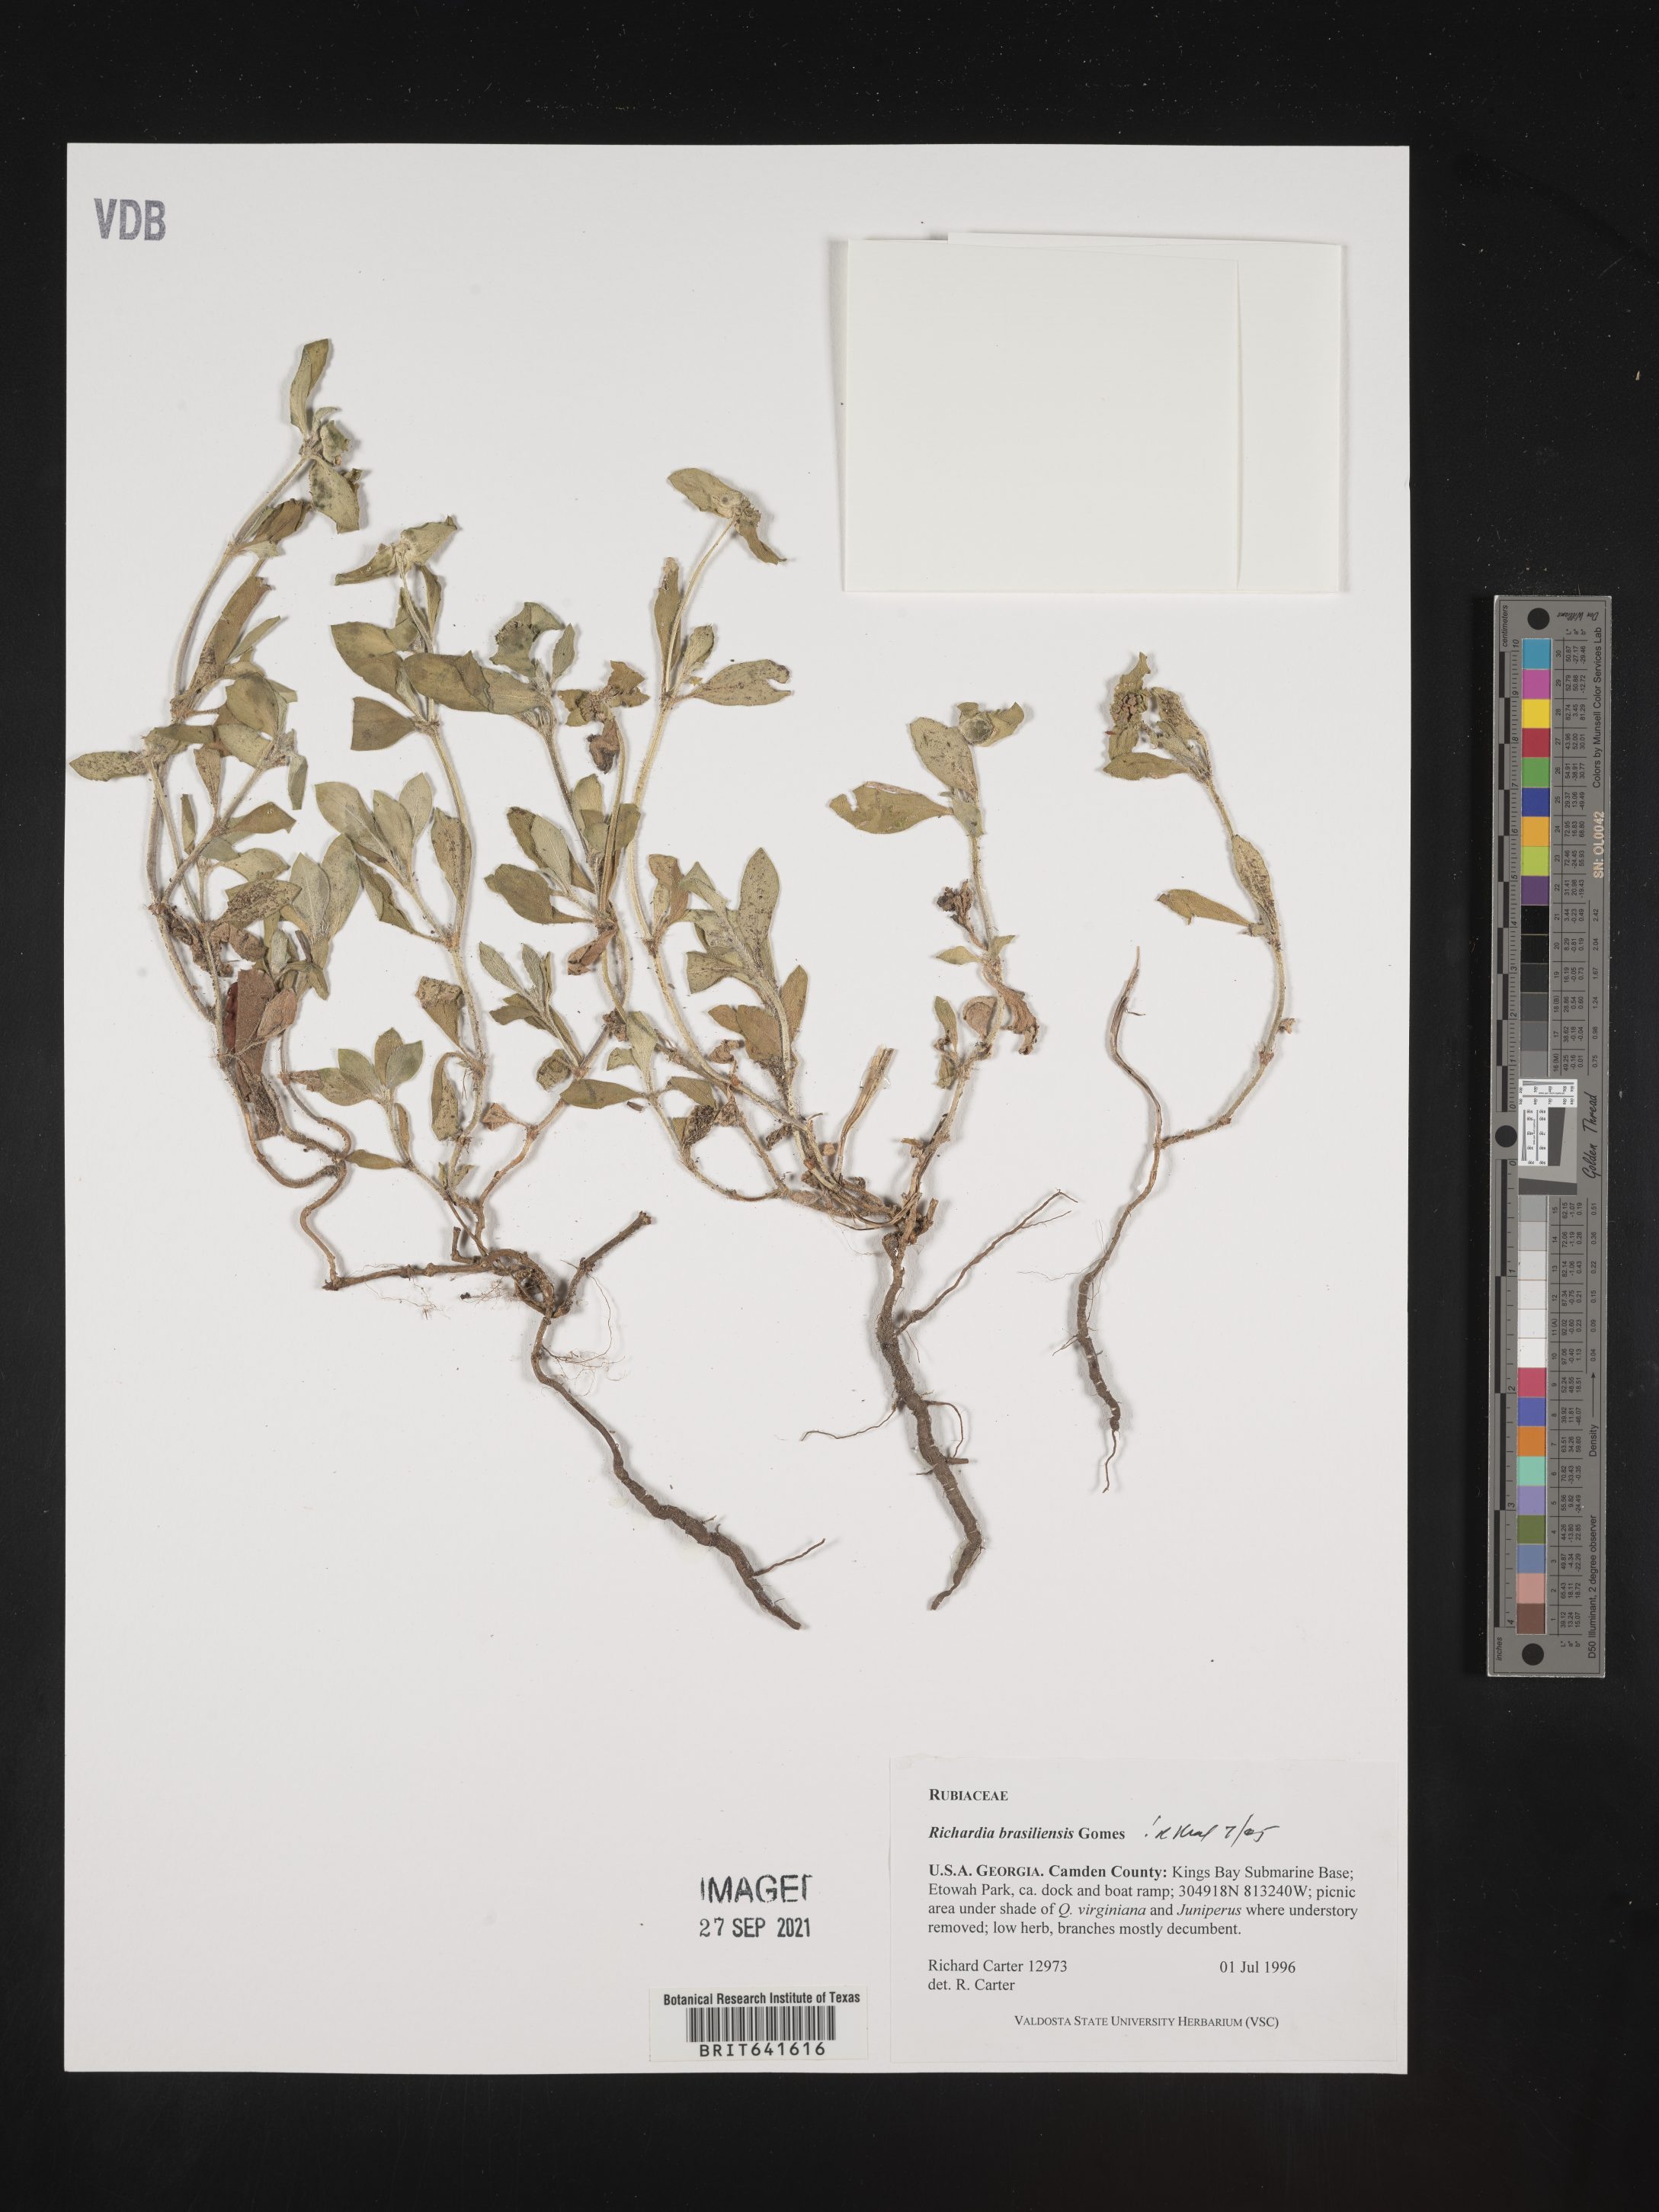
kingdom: Plantae
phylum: Tracheophyta
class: Magnoliopsida
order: Gentianales
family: Rubiaceae
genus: Richardia
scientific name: Richardia brasiliensis
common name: Tropical mexican clover
